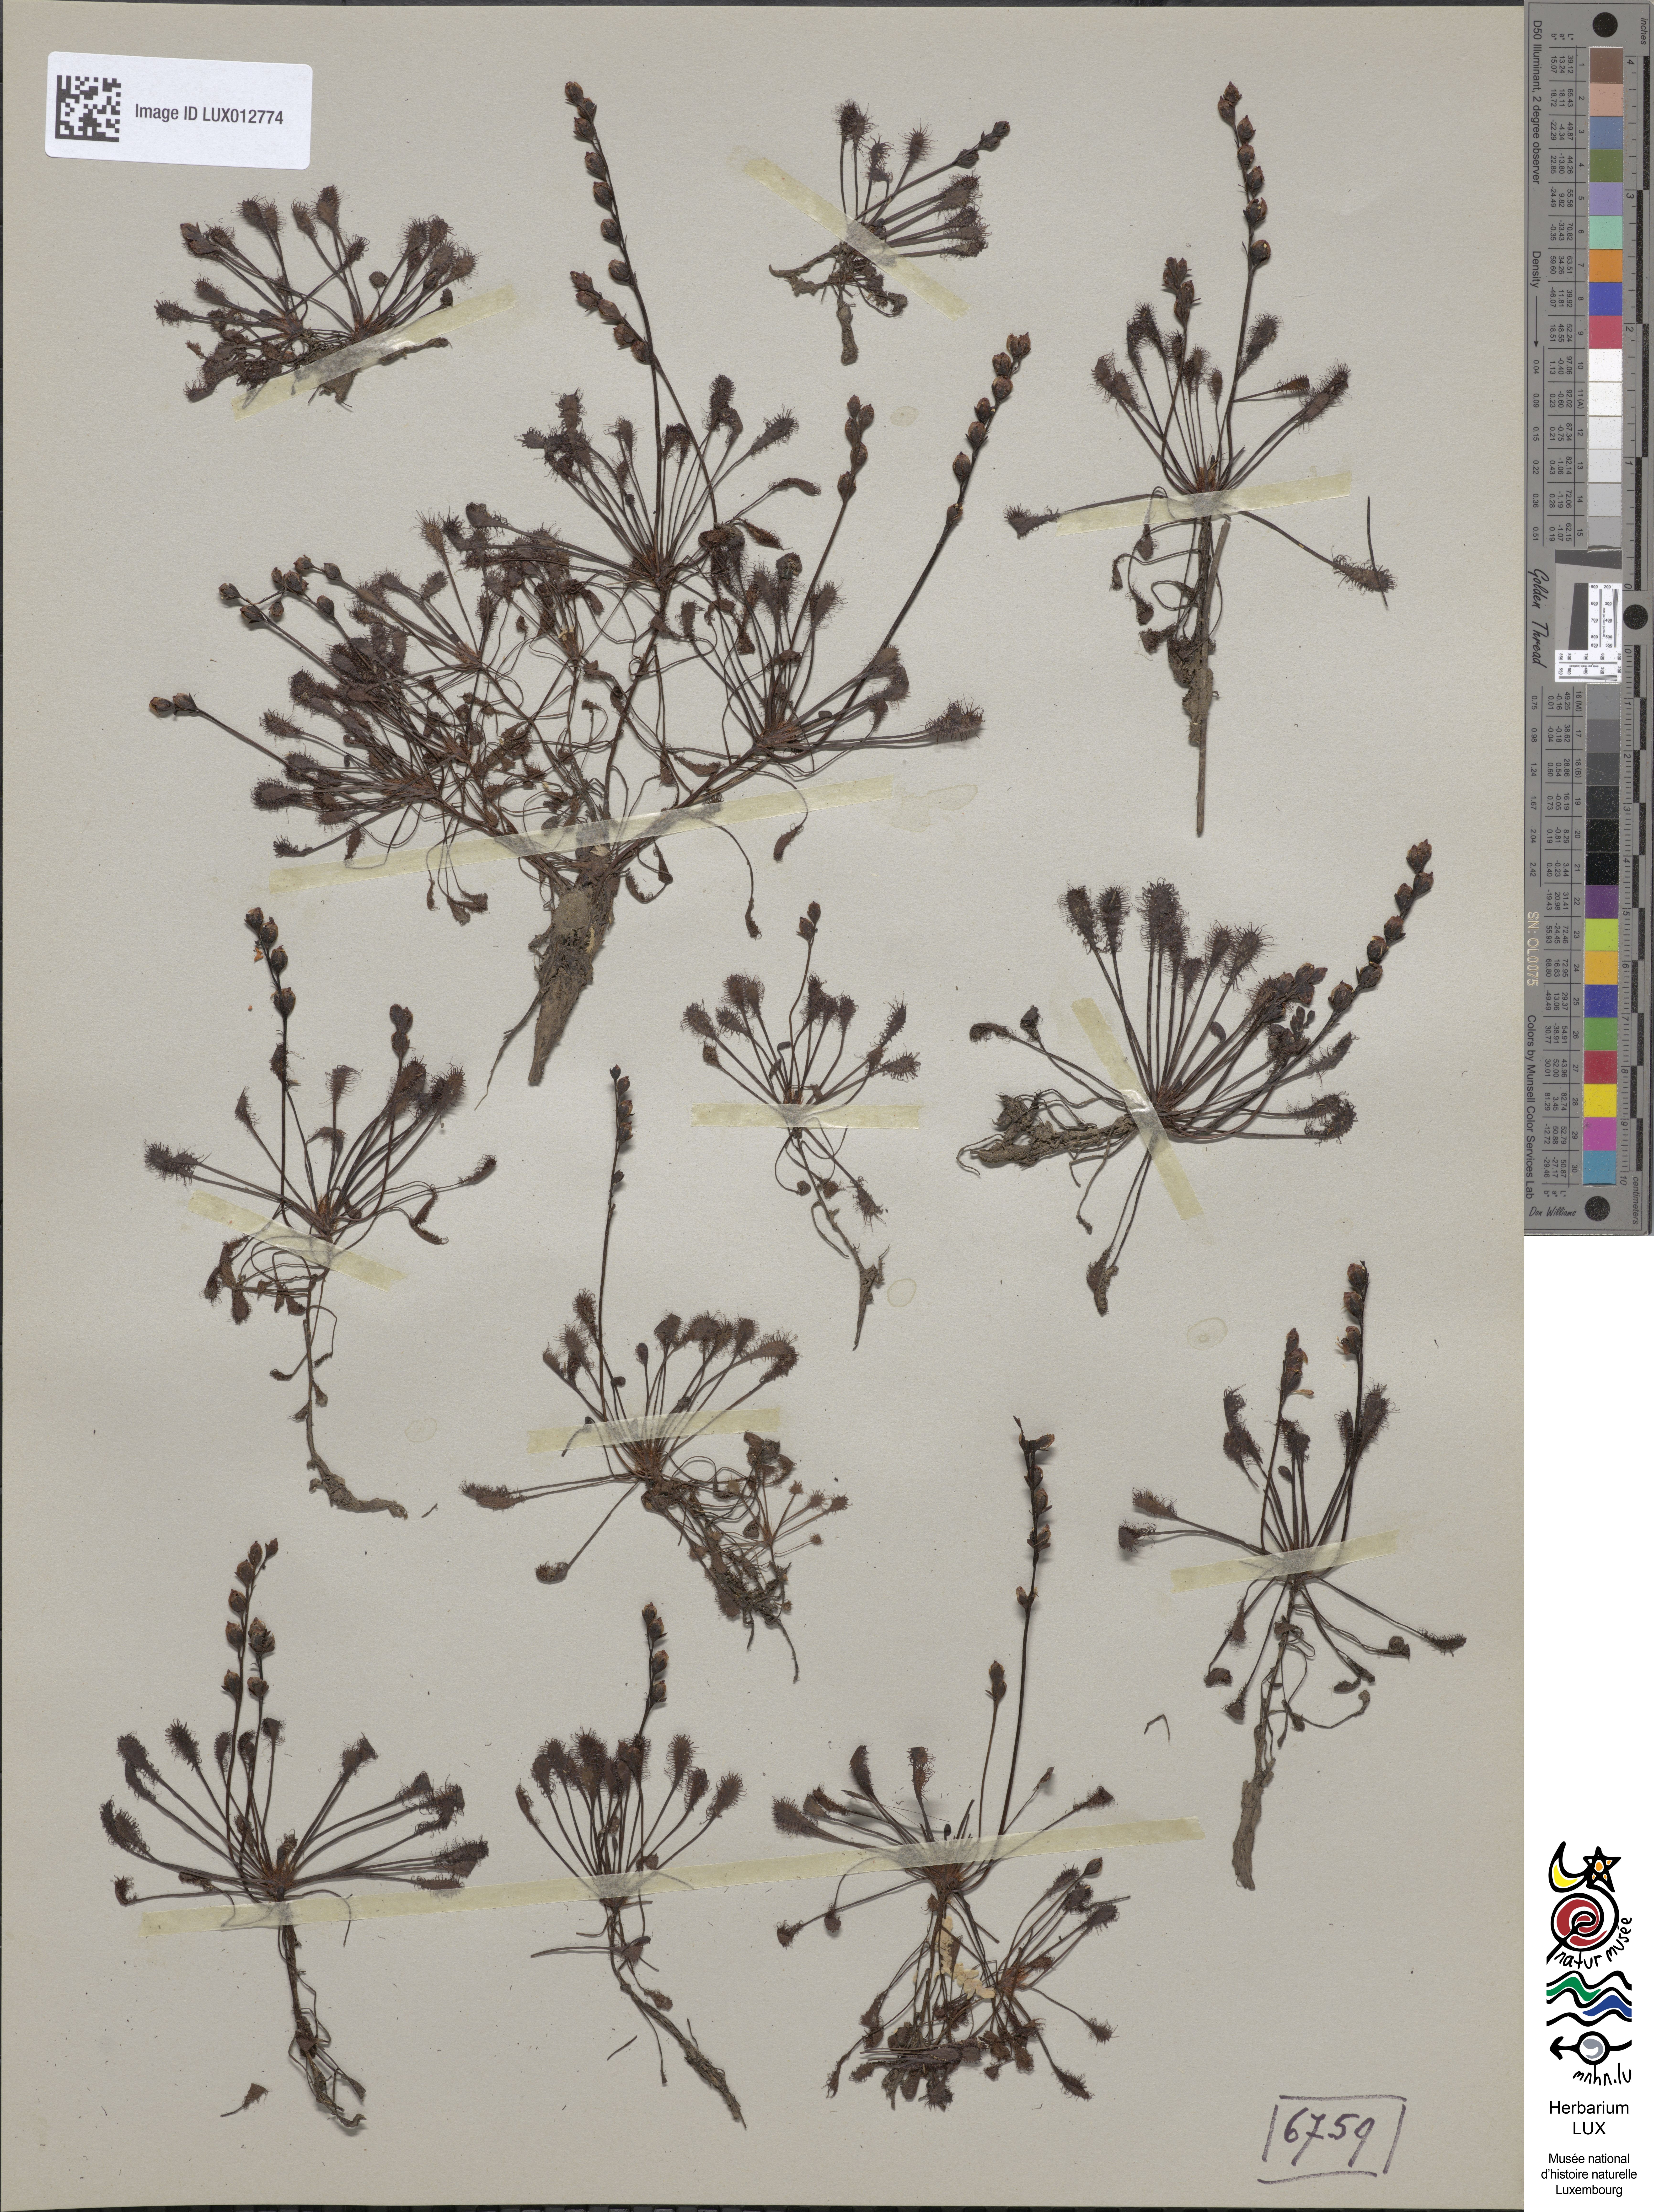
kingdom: Plantae
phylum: Tracheophyta
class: Magnoliopsida
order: Caryophyllales
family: Droseraceae
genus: Drosera
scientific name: Drosera intermedia
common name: Oblong-leaved sundew
